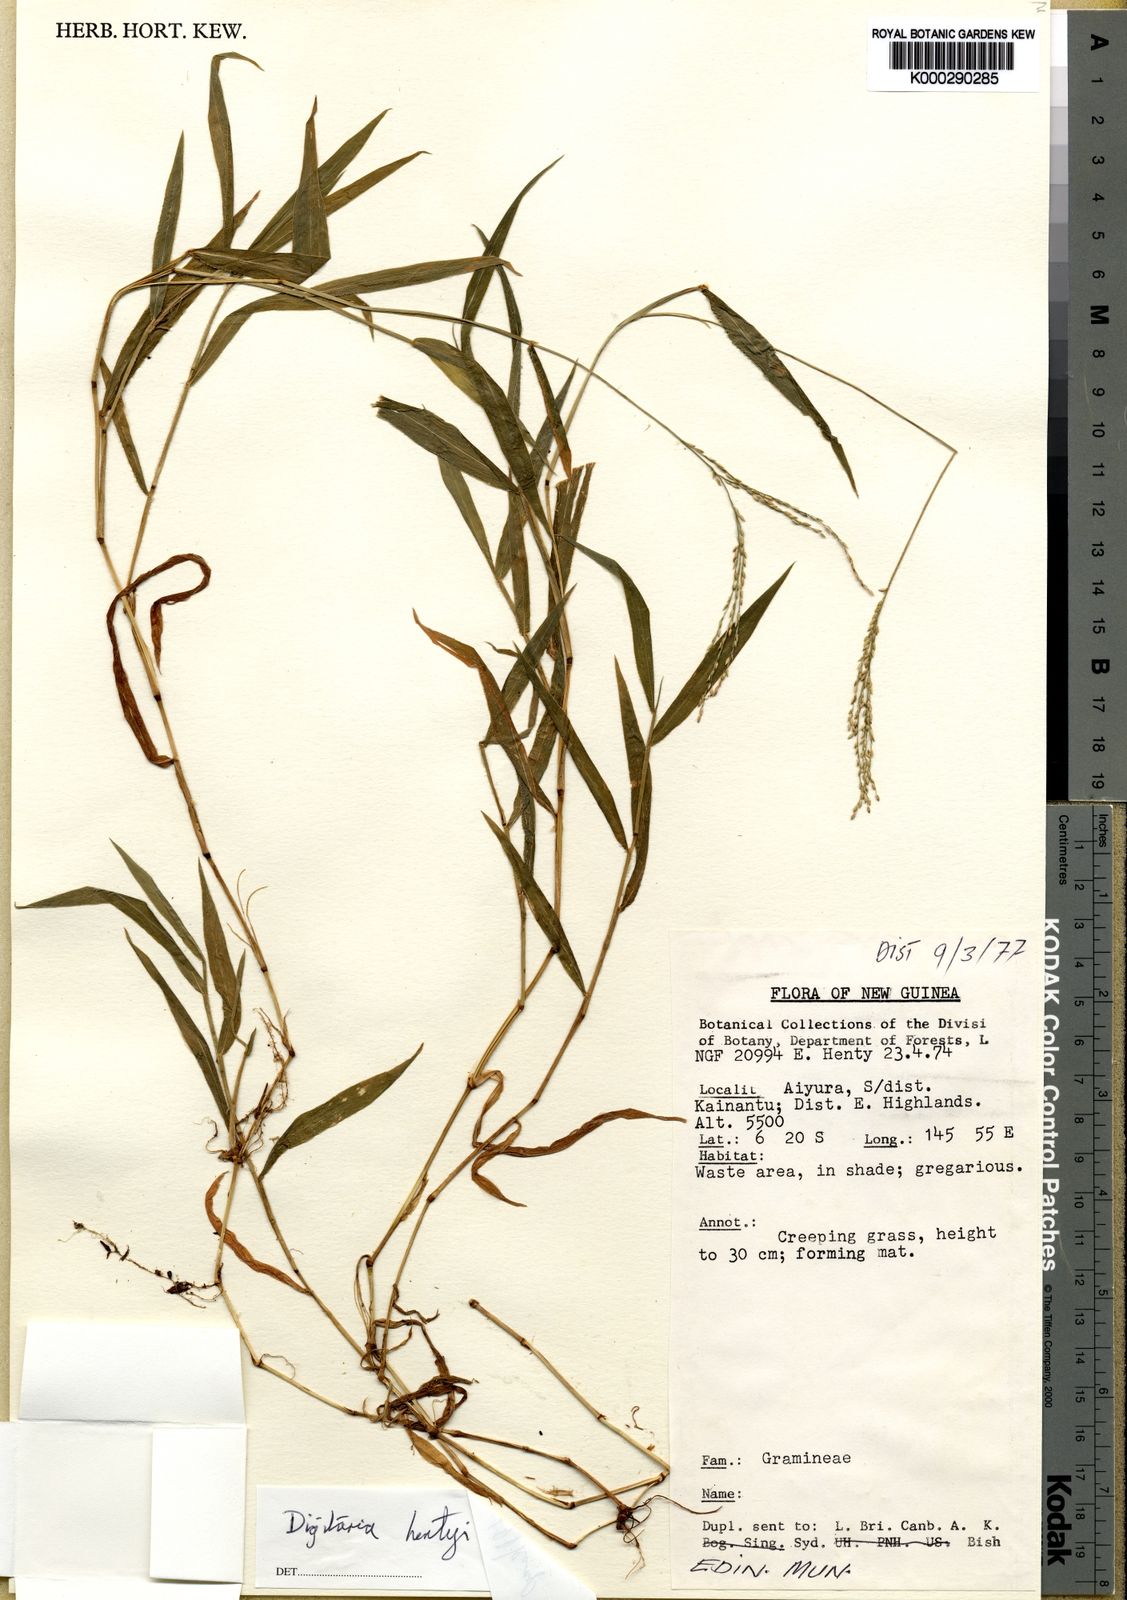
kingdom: Plantae
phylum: Tracheophyta
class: Liliopsida
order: Poales
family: Poaceae
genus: Digitaria
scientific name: Digitaria abyssinica
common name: African couchgrass
